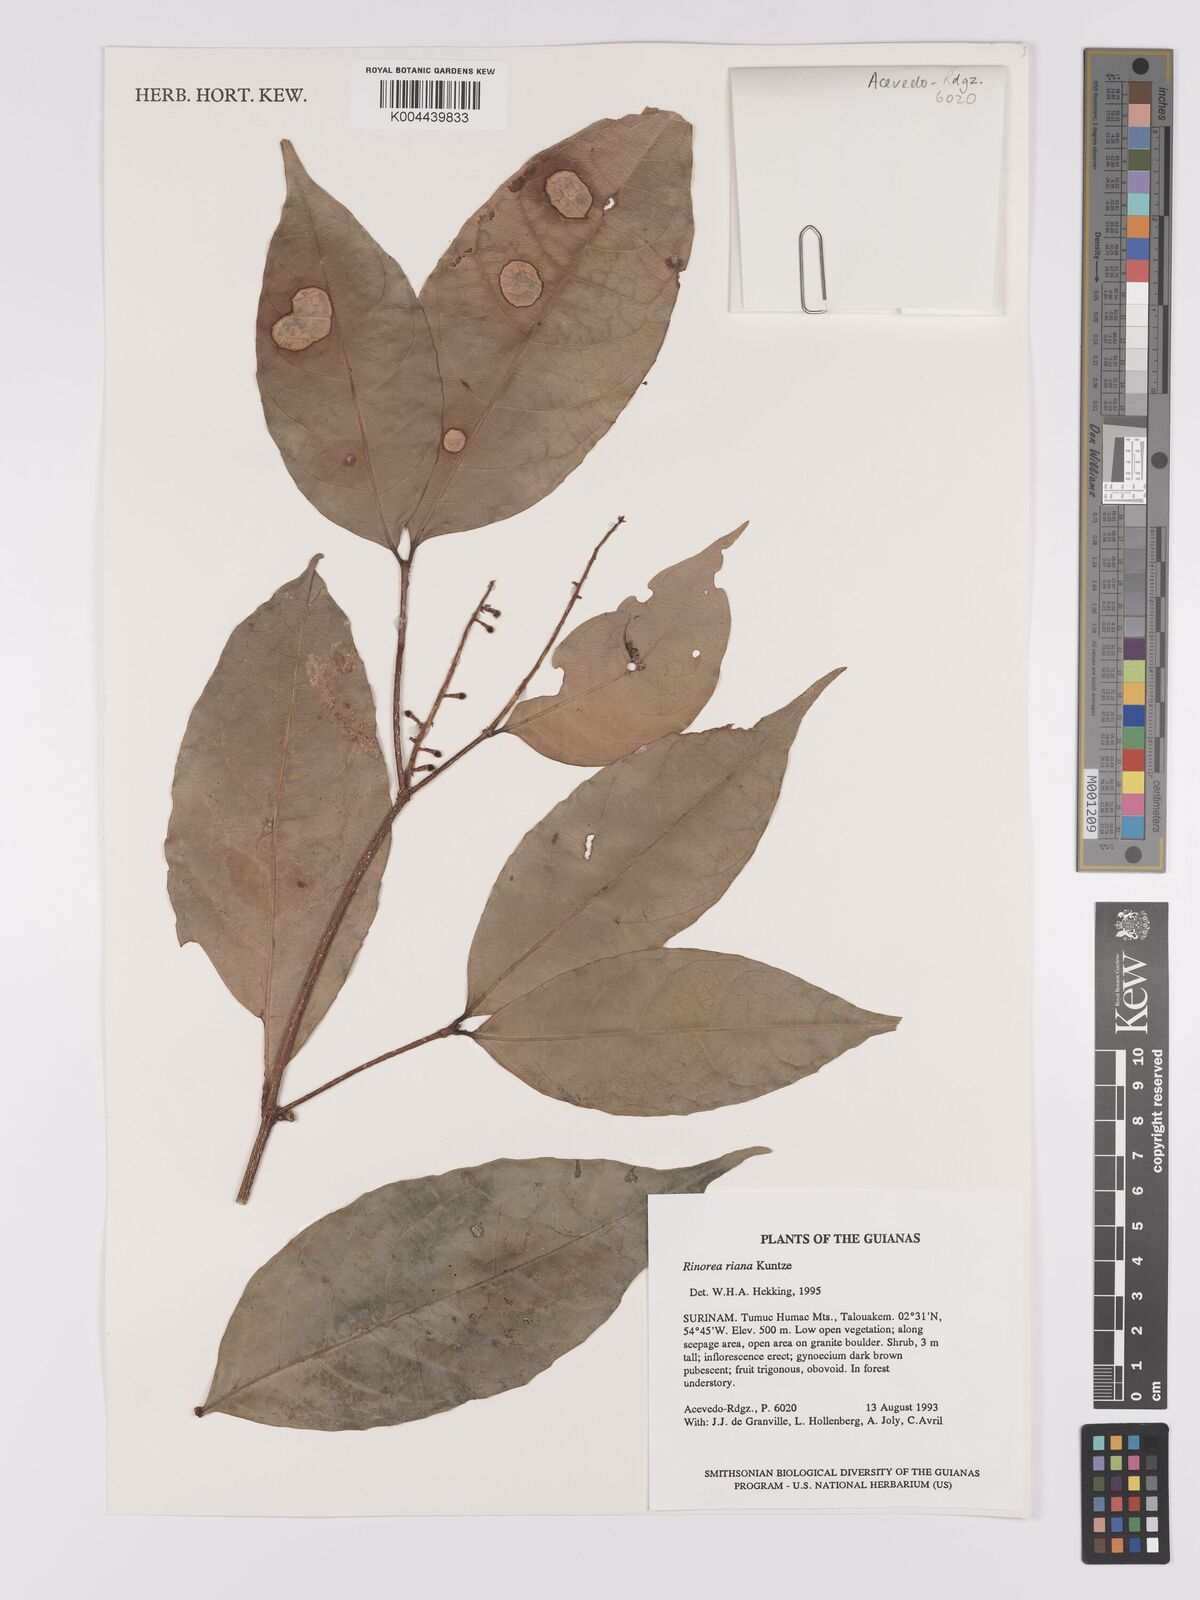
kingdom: Plantae
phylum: Tracheophyta
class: Magnoliopsida
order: Malpighiales
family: Violaceae
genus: Rinorea
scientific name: Rinorea riana
